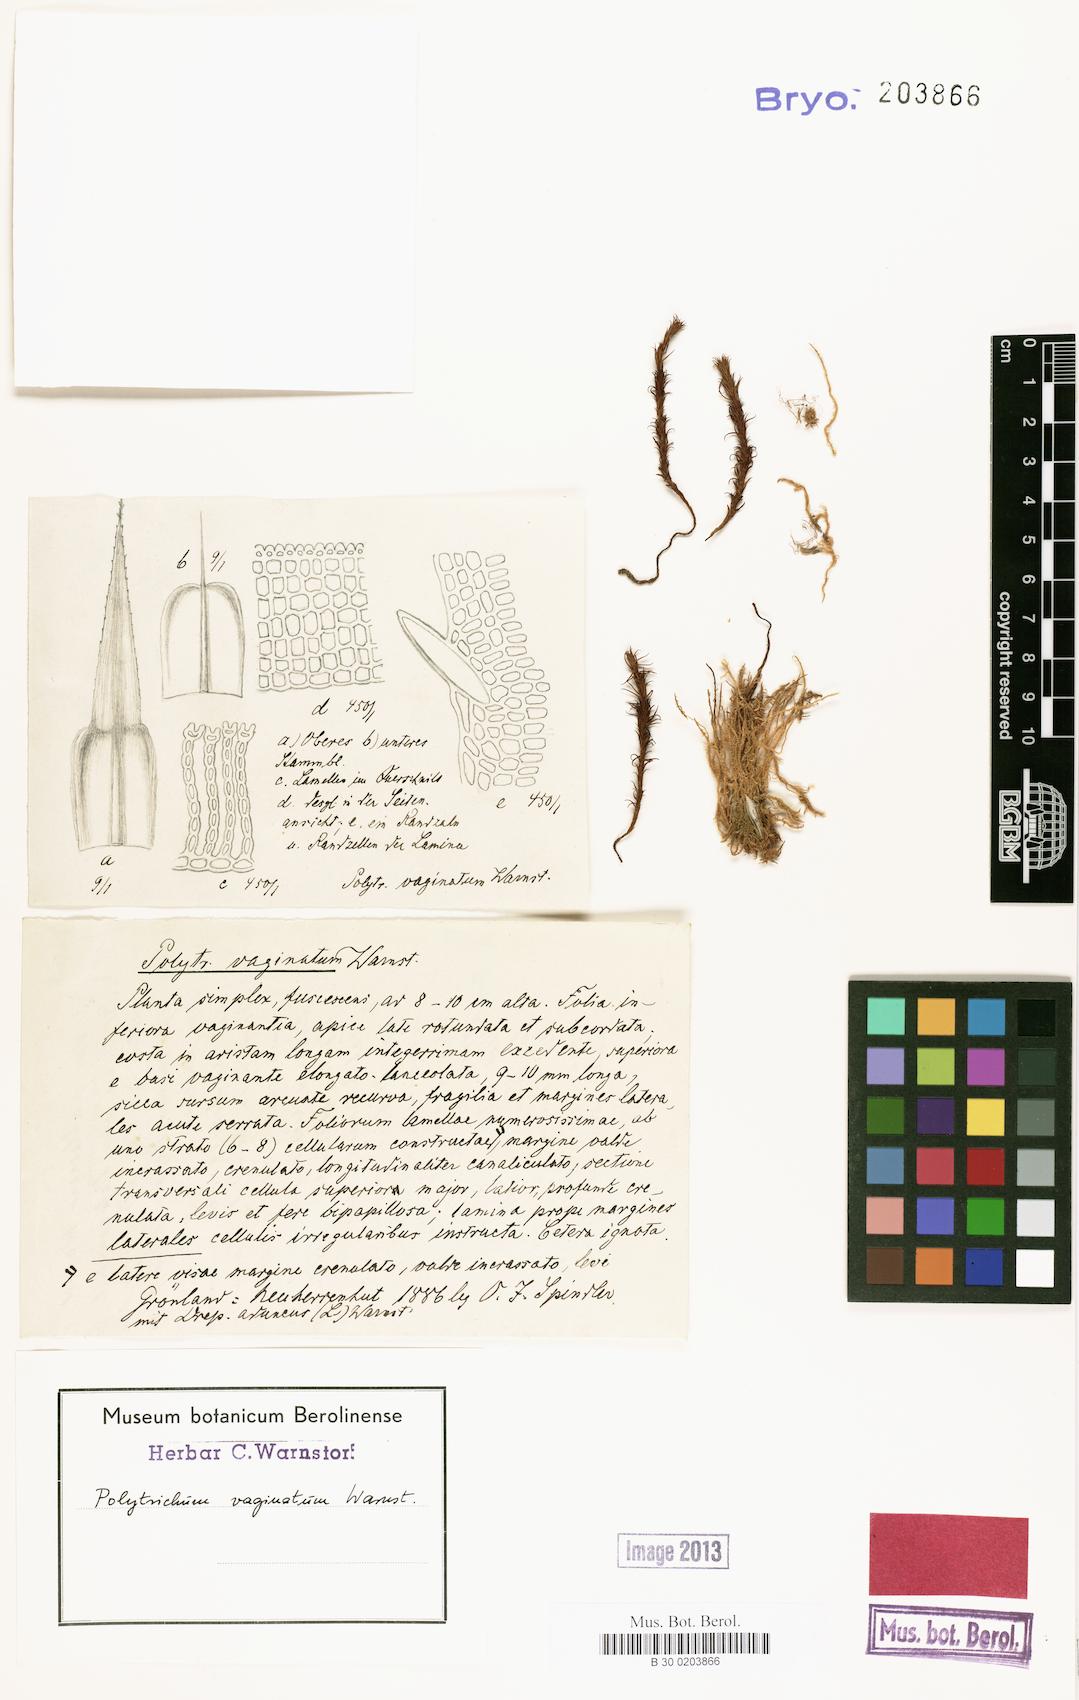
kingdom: Plantae
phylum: Bryophyta
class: Polytrichopsida
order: Polytrichales
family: Polytrichaceae
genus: Polytrichum
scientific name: Polytrichum vaginatum
